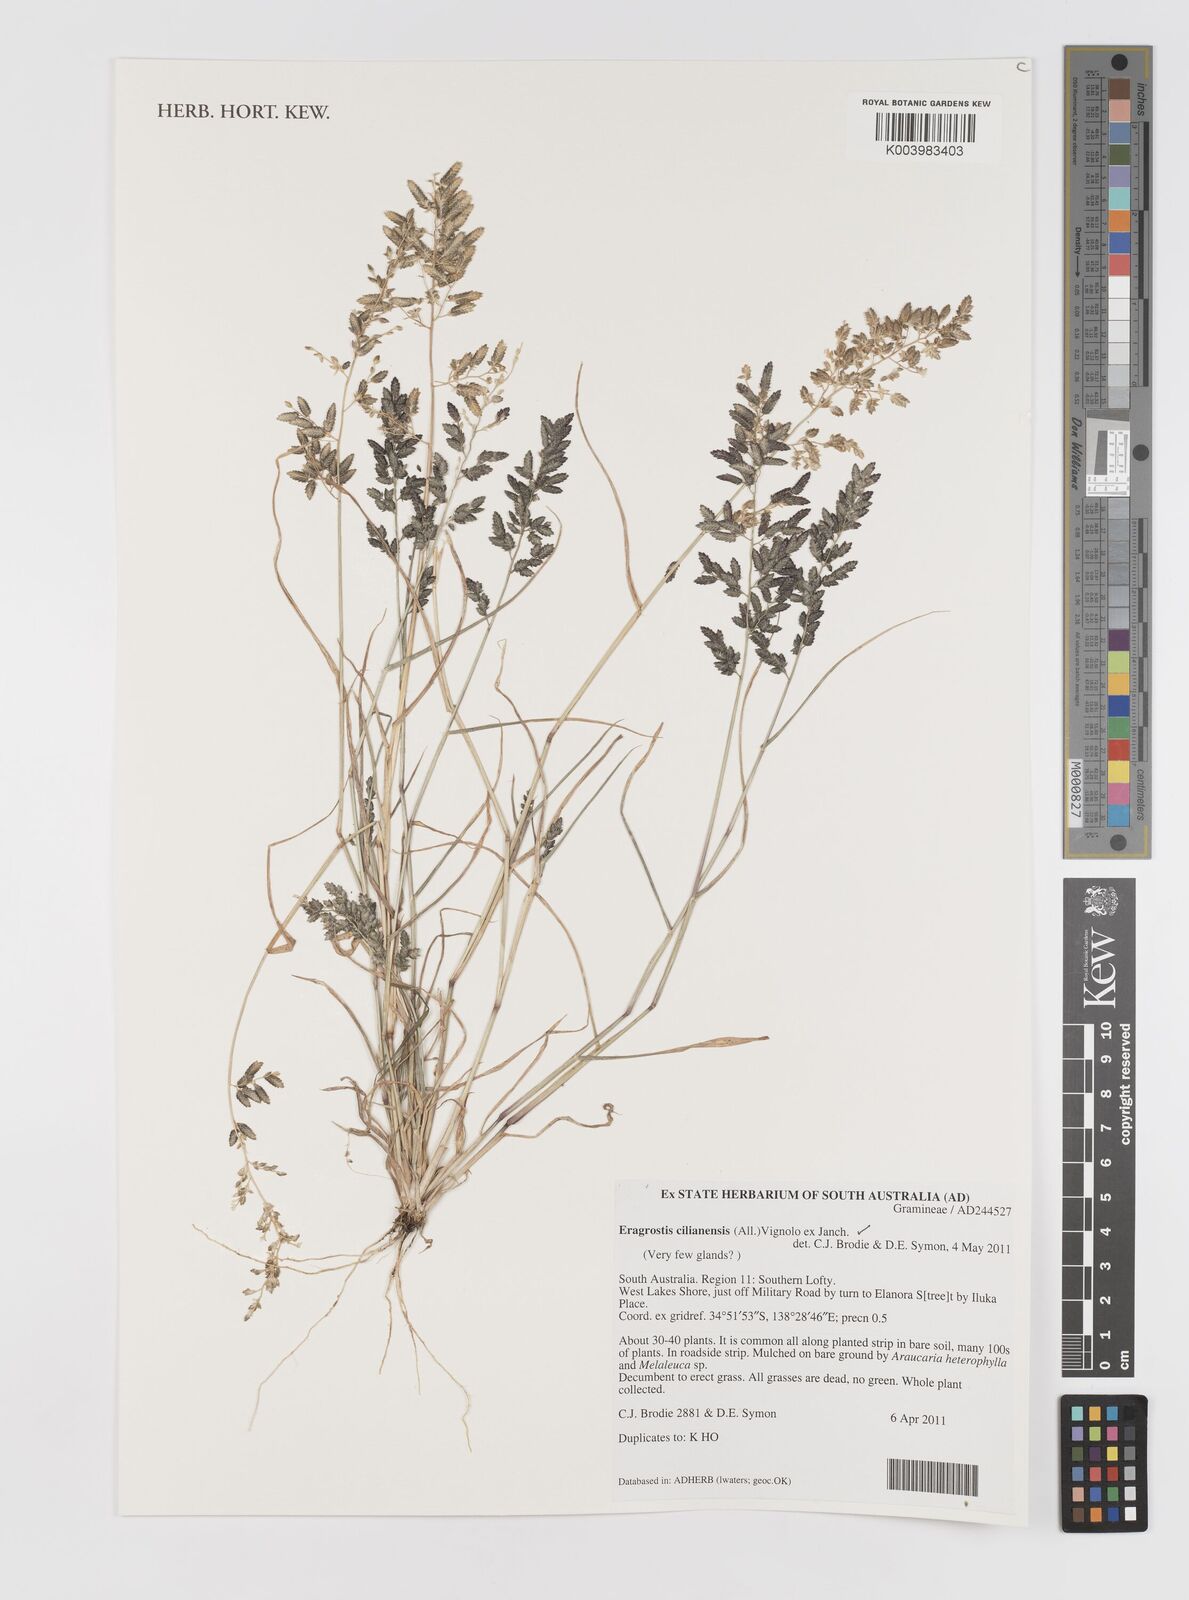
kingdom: Plantae
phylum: Tracheophyta
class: Liliopsida
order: Poales
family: Poaceae
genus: Eragrostis
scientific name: Eragrostis cilianensis
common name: Stinkgrass
